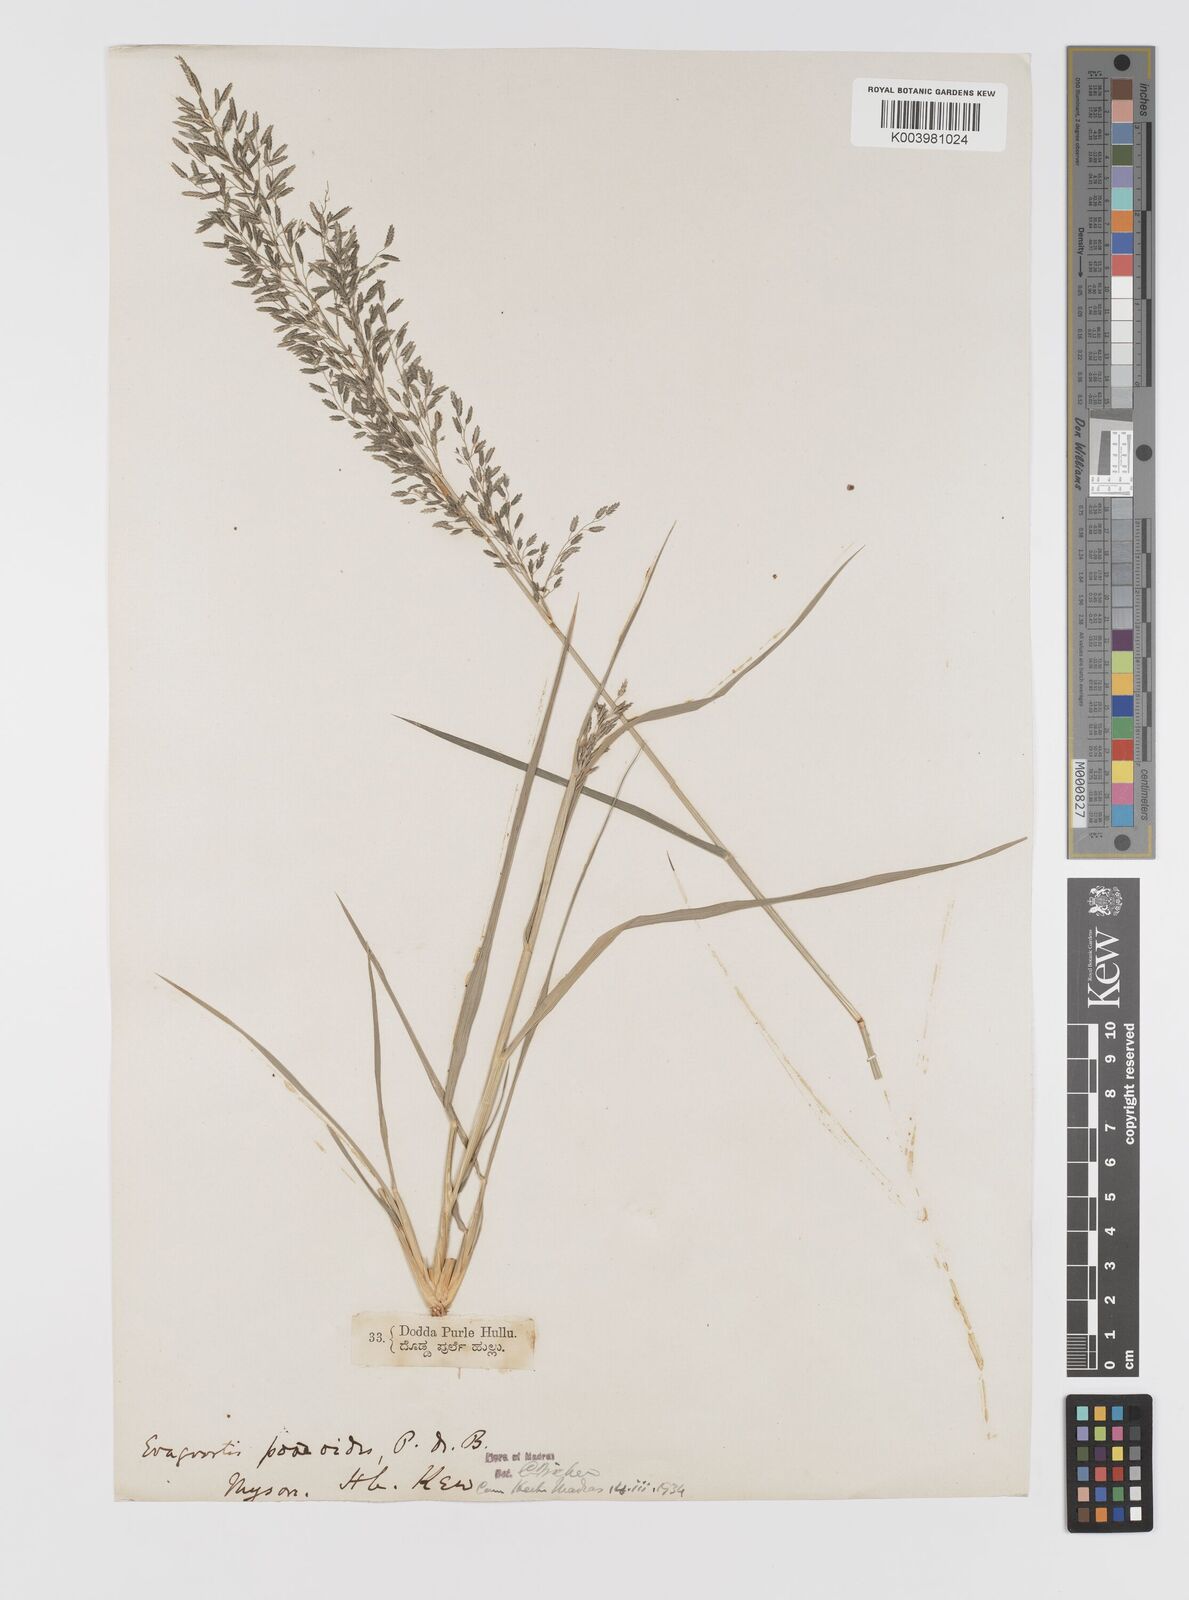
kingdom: Plantae
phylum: Tracheophyta
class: Liliopsida
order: Poales
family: Poaceae
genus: Eragrostis
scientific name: Eragrostis minor
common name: Small love-grass
